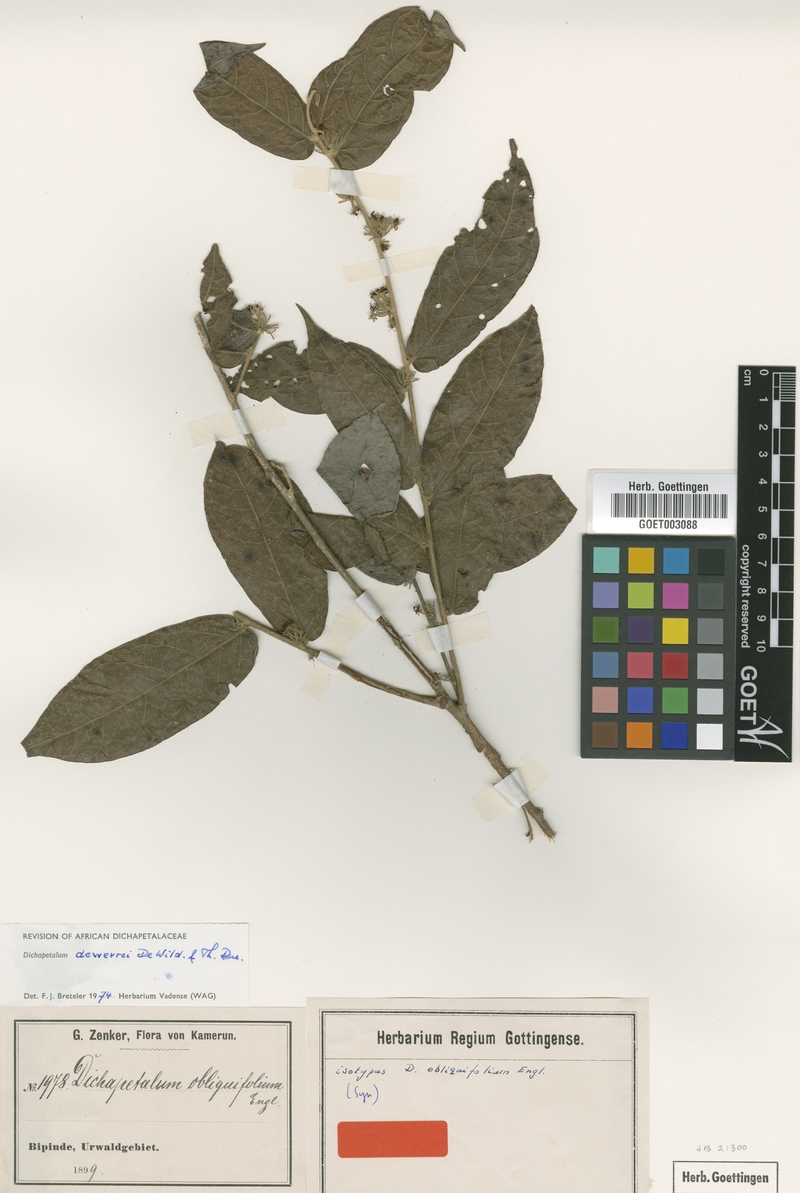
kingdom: Plantae
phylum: Tracheophyta
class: Magnoliopsida
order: Malpighiales
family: Dichapetalaceae
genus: Dichapetalum
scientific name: Dichapetalum dewevrei
